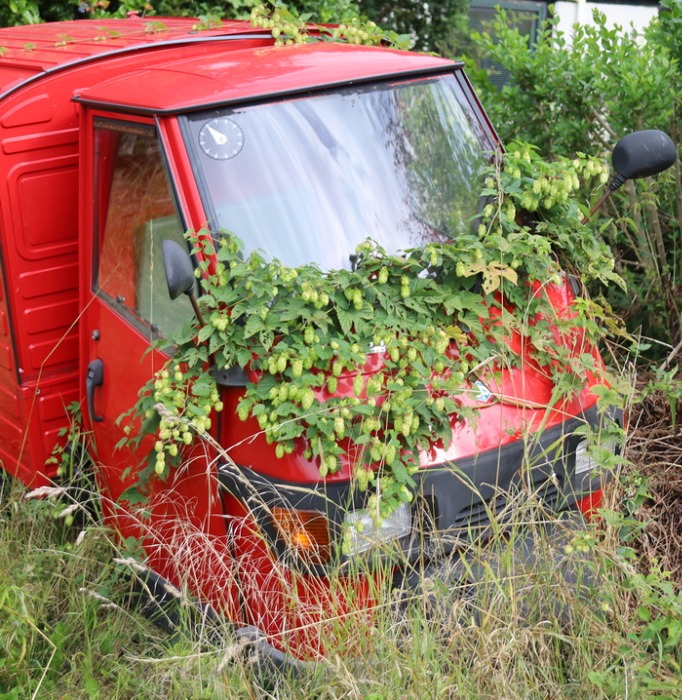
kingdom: Plantae
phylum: Tracheophyta
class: Magnoliopsida
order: Rosales
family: Cannabaceae
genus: Humulus
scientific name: Humulus lupulus
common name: Humle
